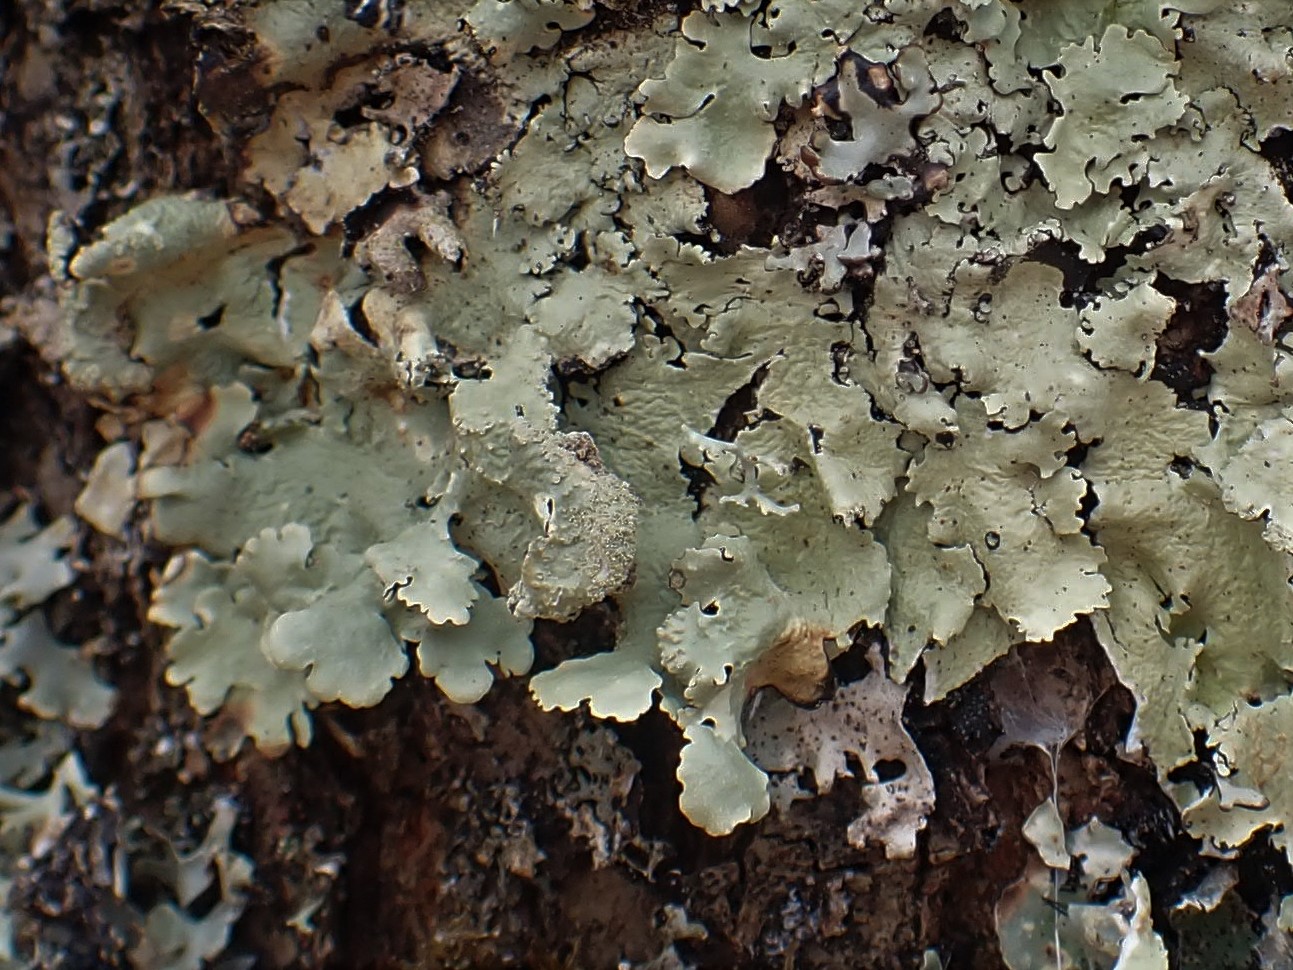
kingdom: Fungi
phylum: Ascomycota
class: Lecanoromycetes
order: Lecanorales
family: Parmeliaceae
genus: Flavoparmelia
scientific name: Flavoparmelia caperata
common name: gulgrøn skållav
